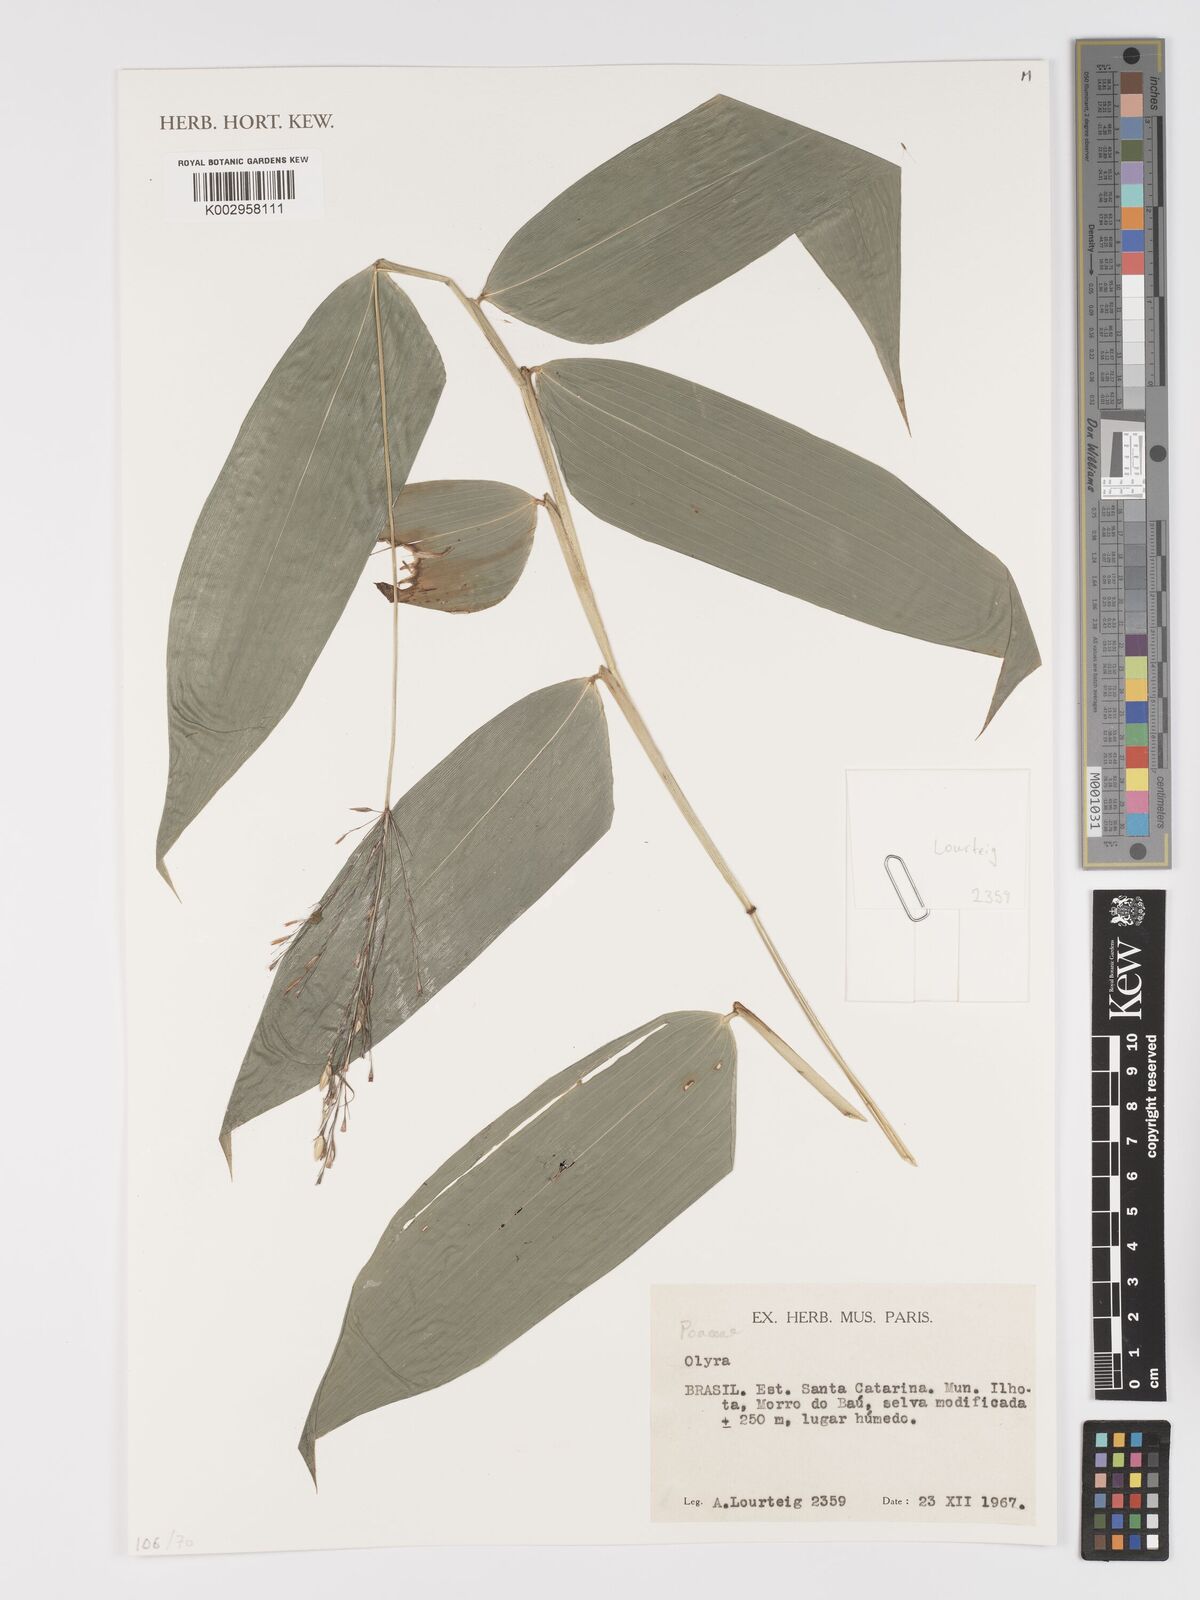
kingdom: Plantae
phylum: Tracheophyta
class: Liliopsida
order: Poales
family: Poaceae
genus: Olyra
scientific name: Olyra
